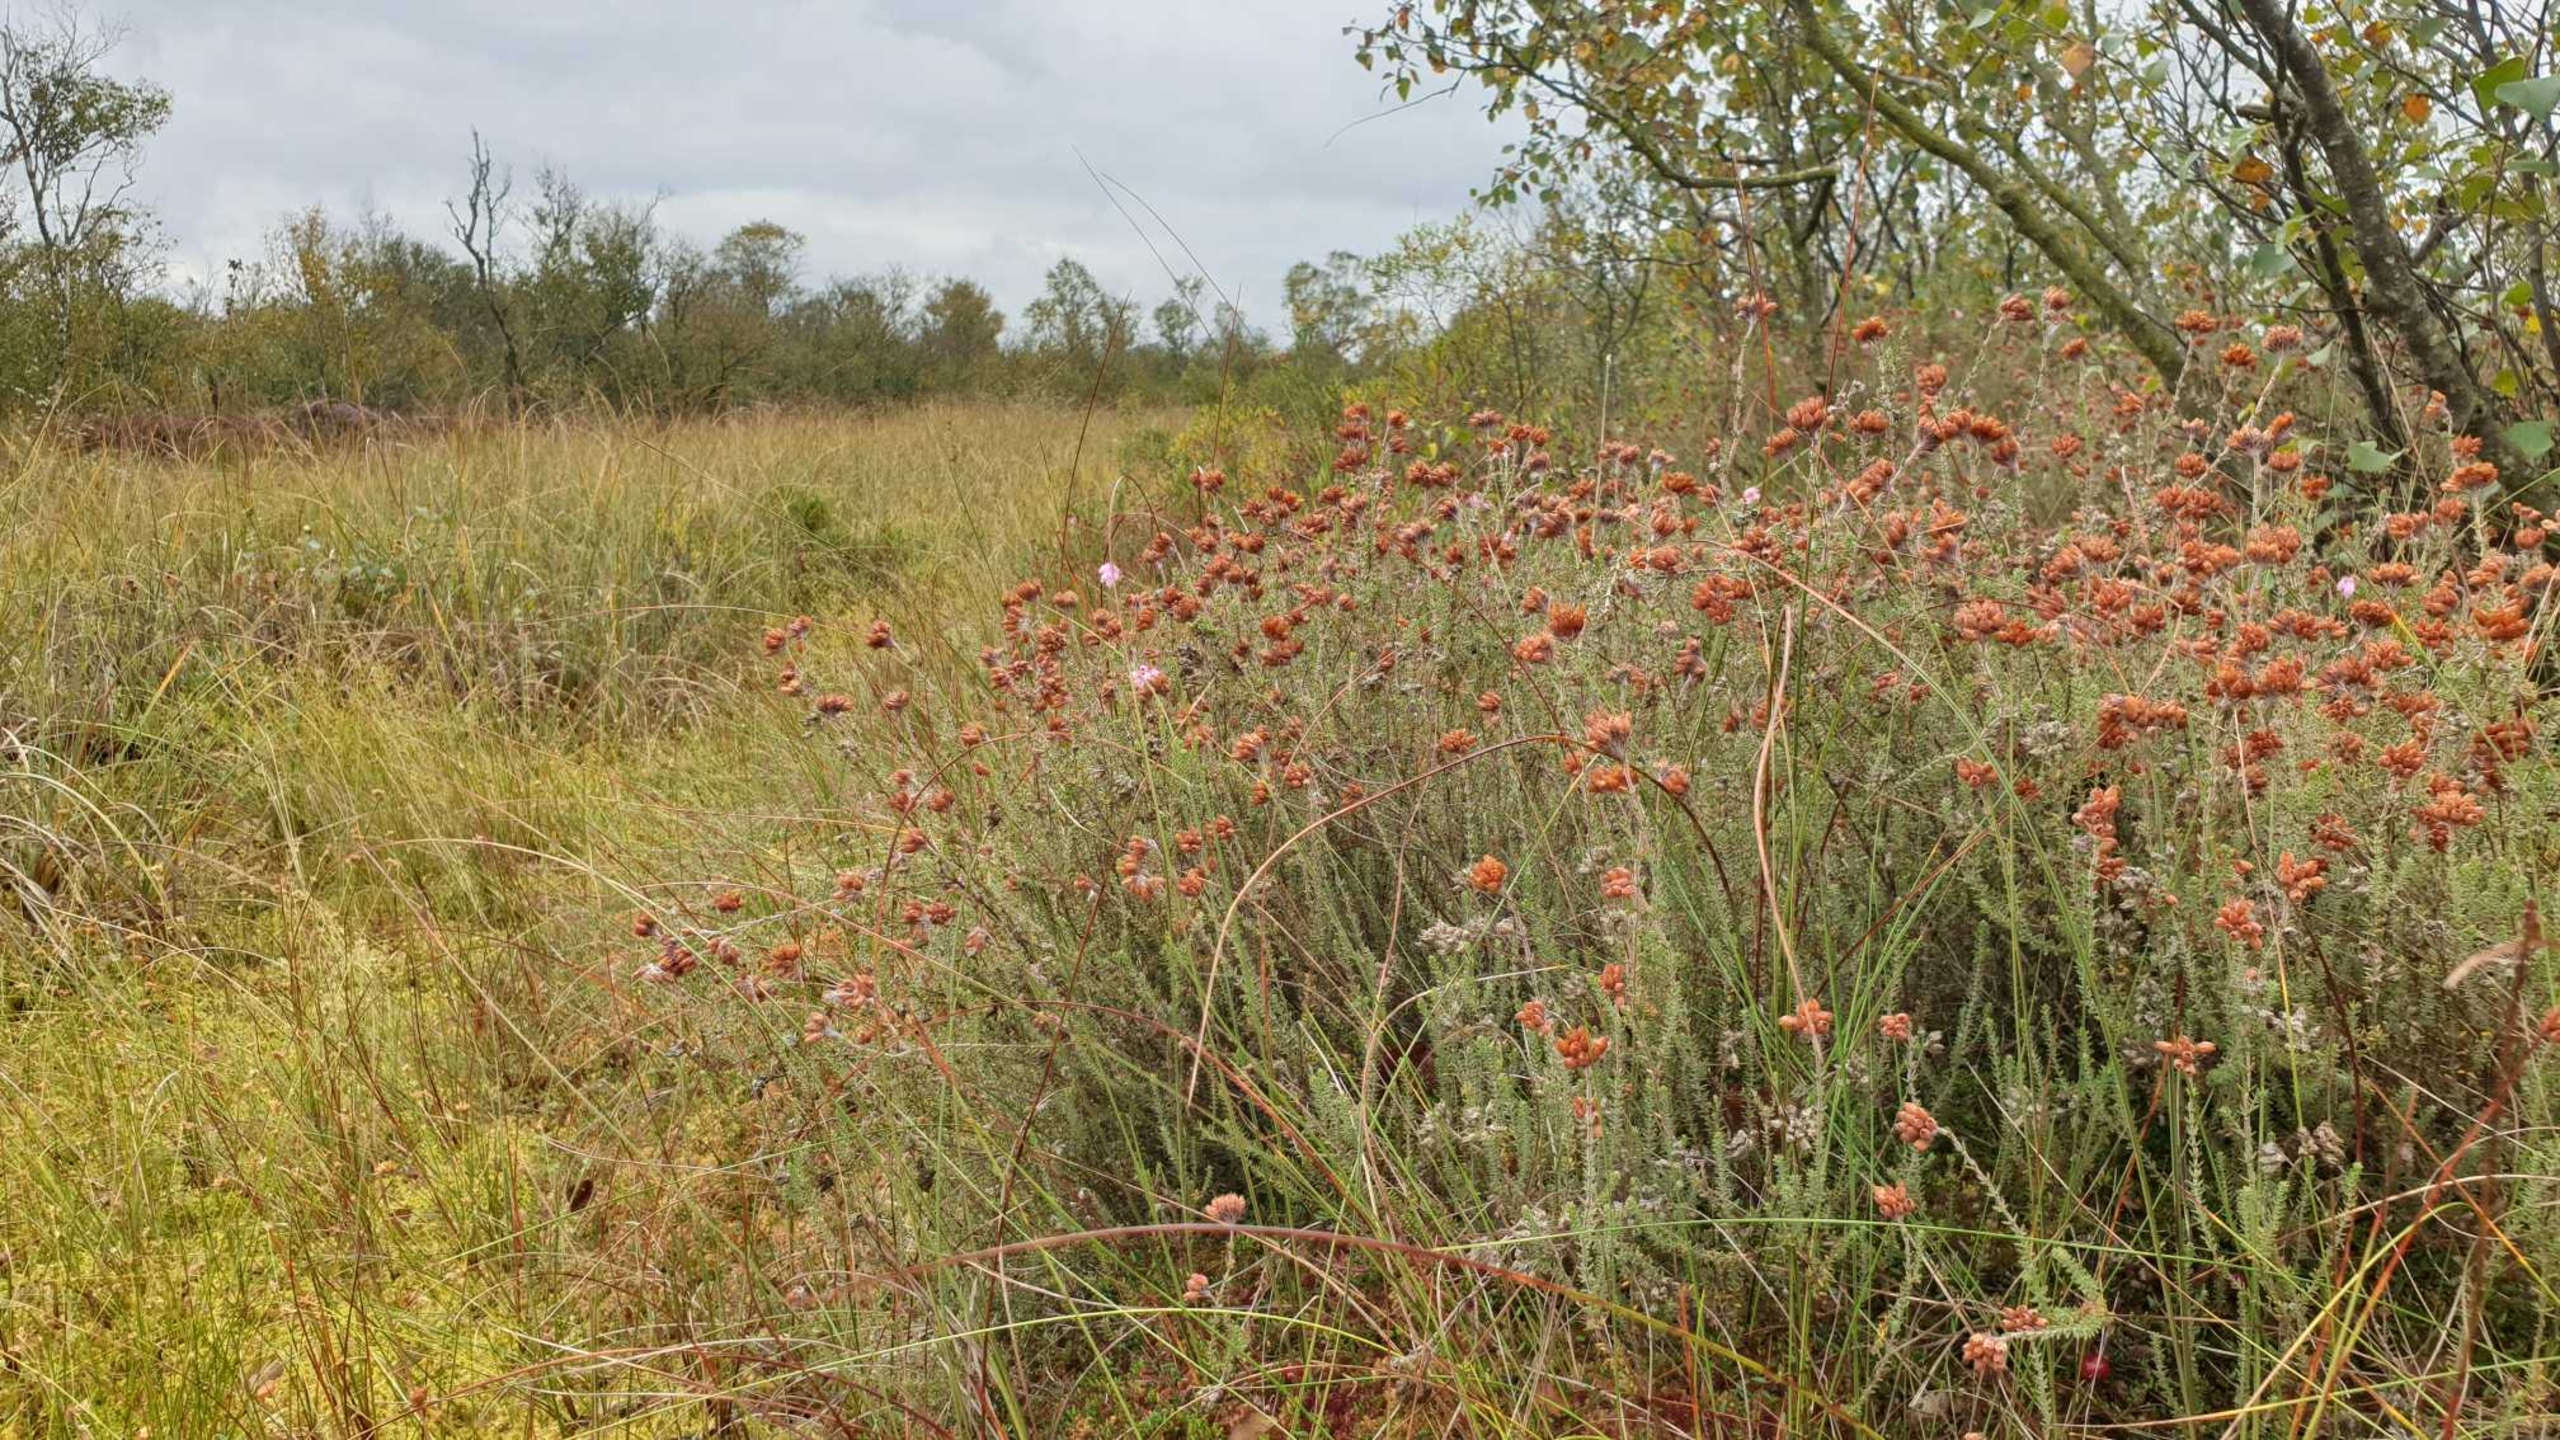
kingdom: Plantae
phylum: Tracheophyta
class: Magnoliopsida
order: Ericales
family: Ericaceae
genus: Erica
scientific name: Erica tetralix
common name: Klokkelyng
